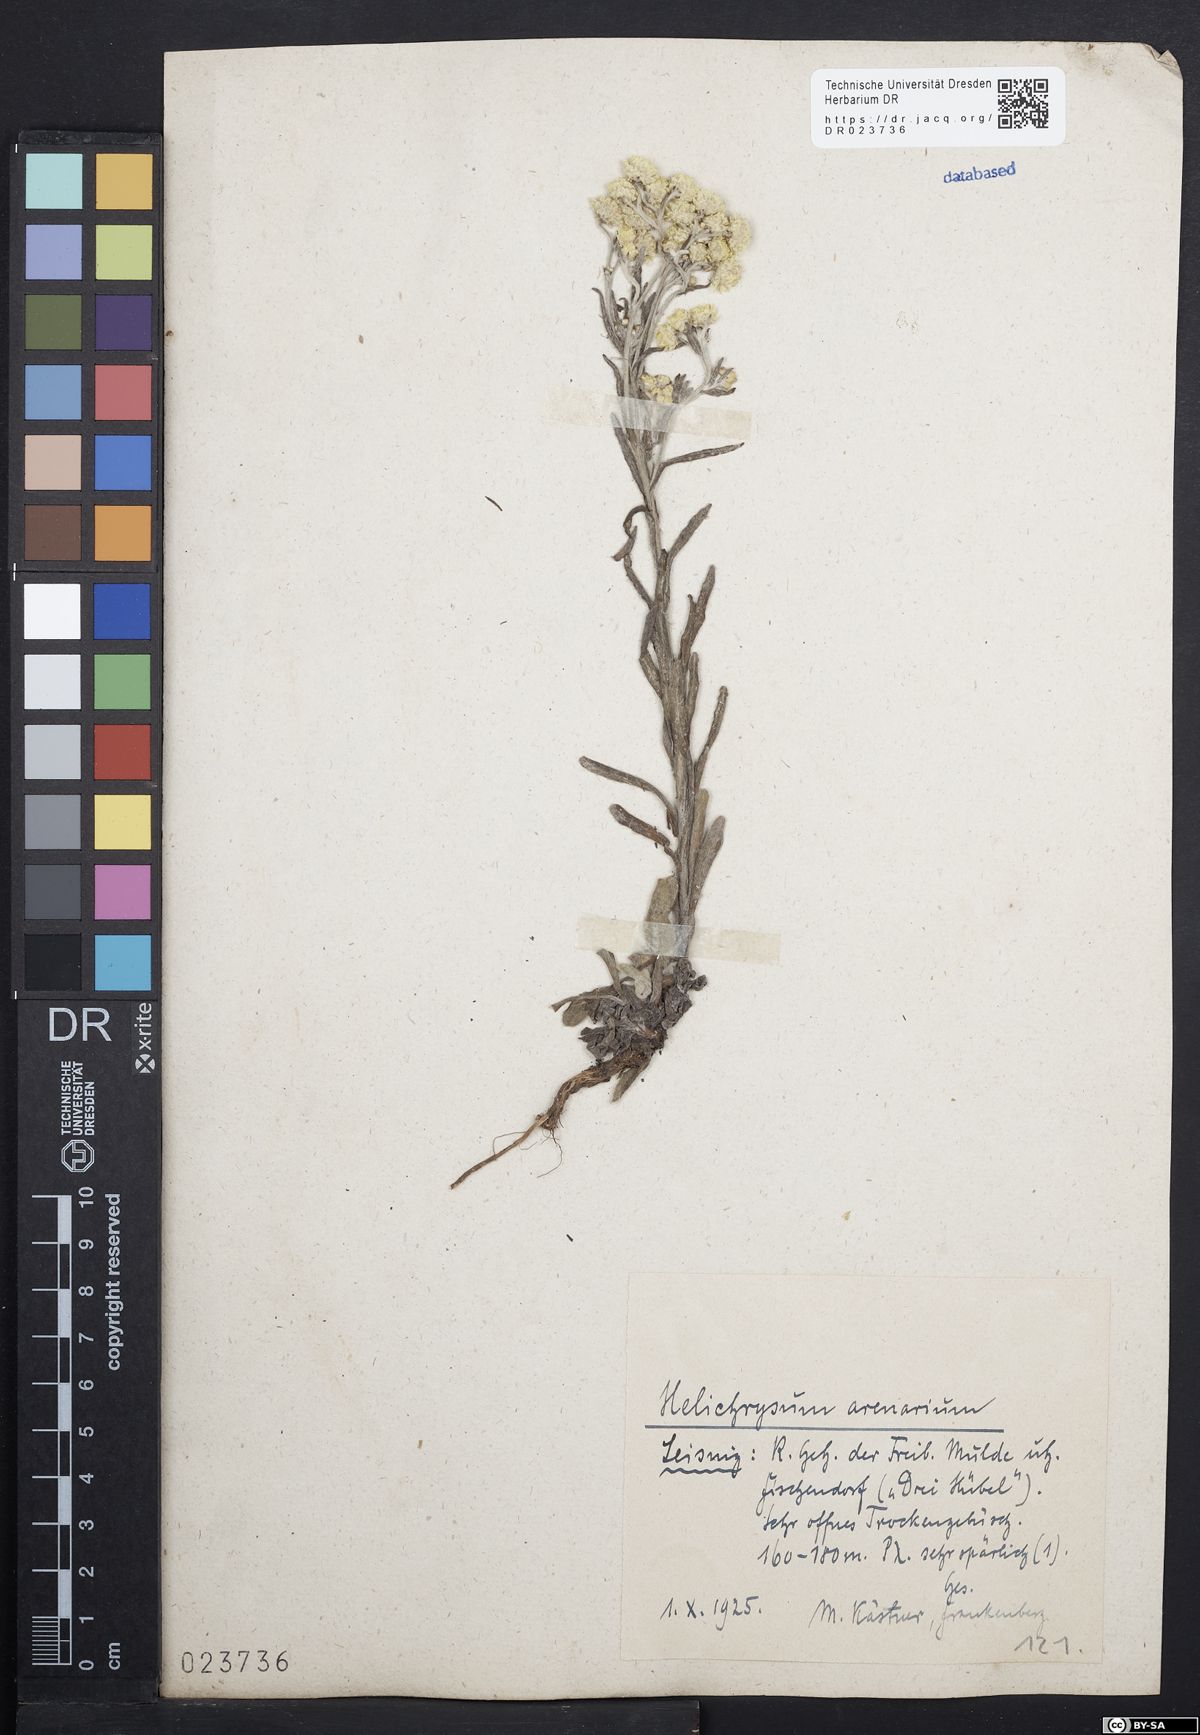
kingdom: Plantae
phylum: Tracheophyta
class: Magnoliopsida
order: Asterales
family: Asteraceae
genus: Helichrysum
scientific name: Helichrysum arenarium
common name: Strawflower
